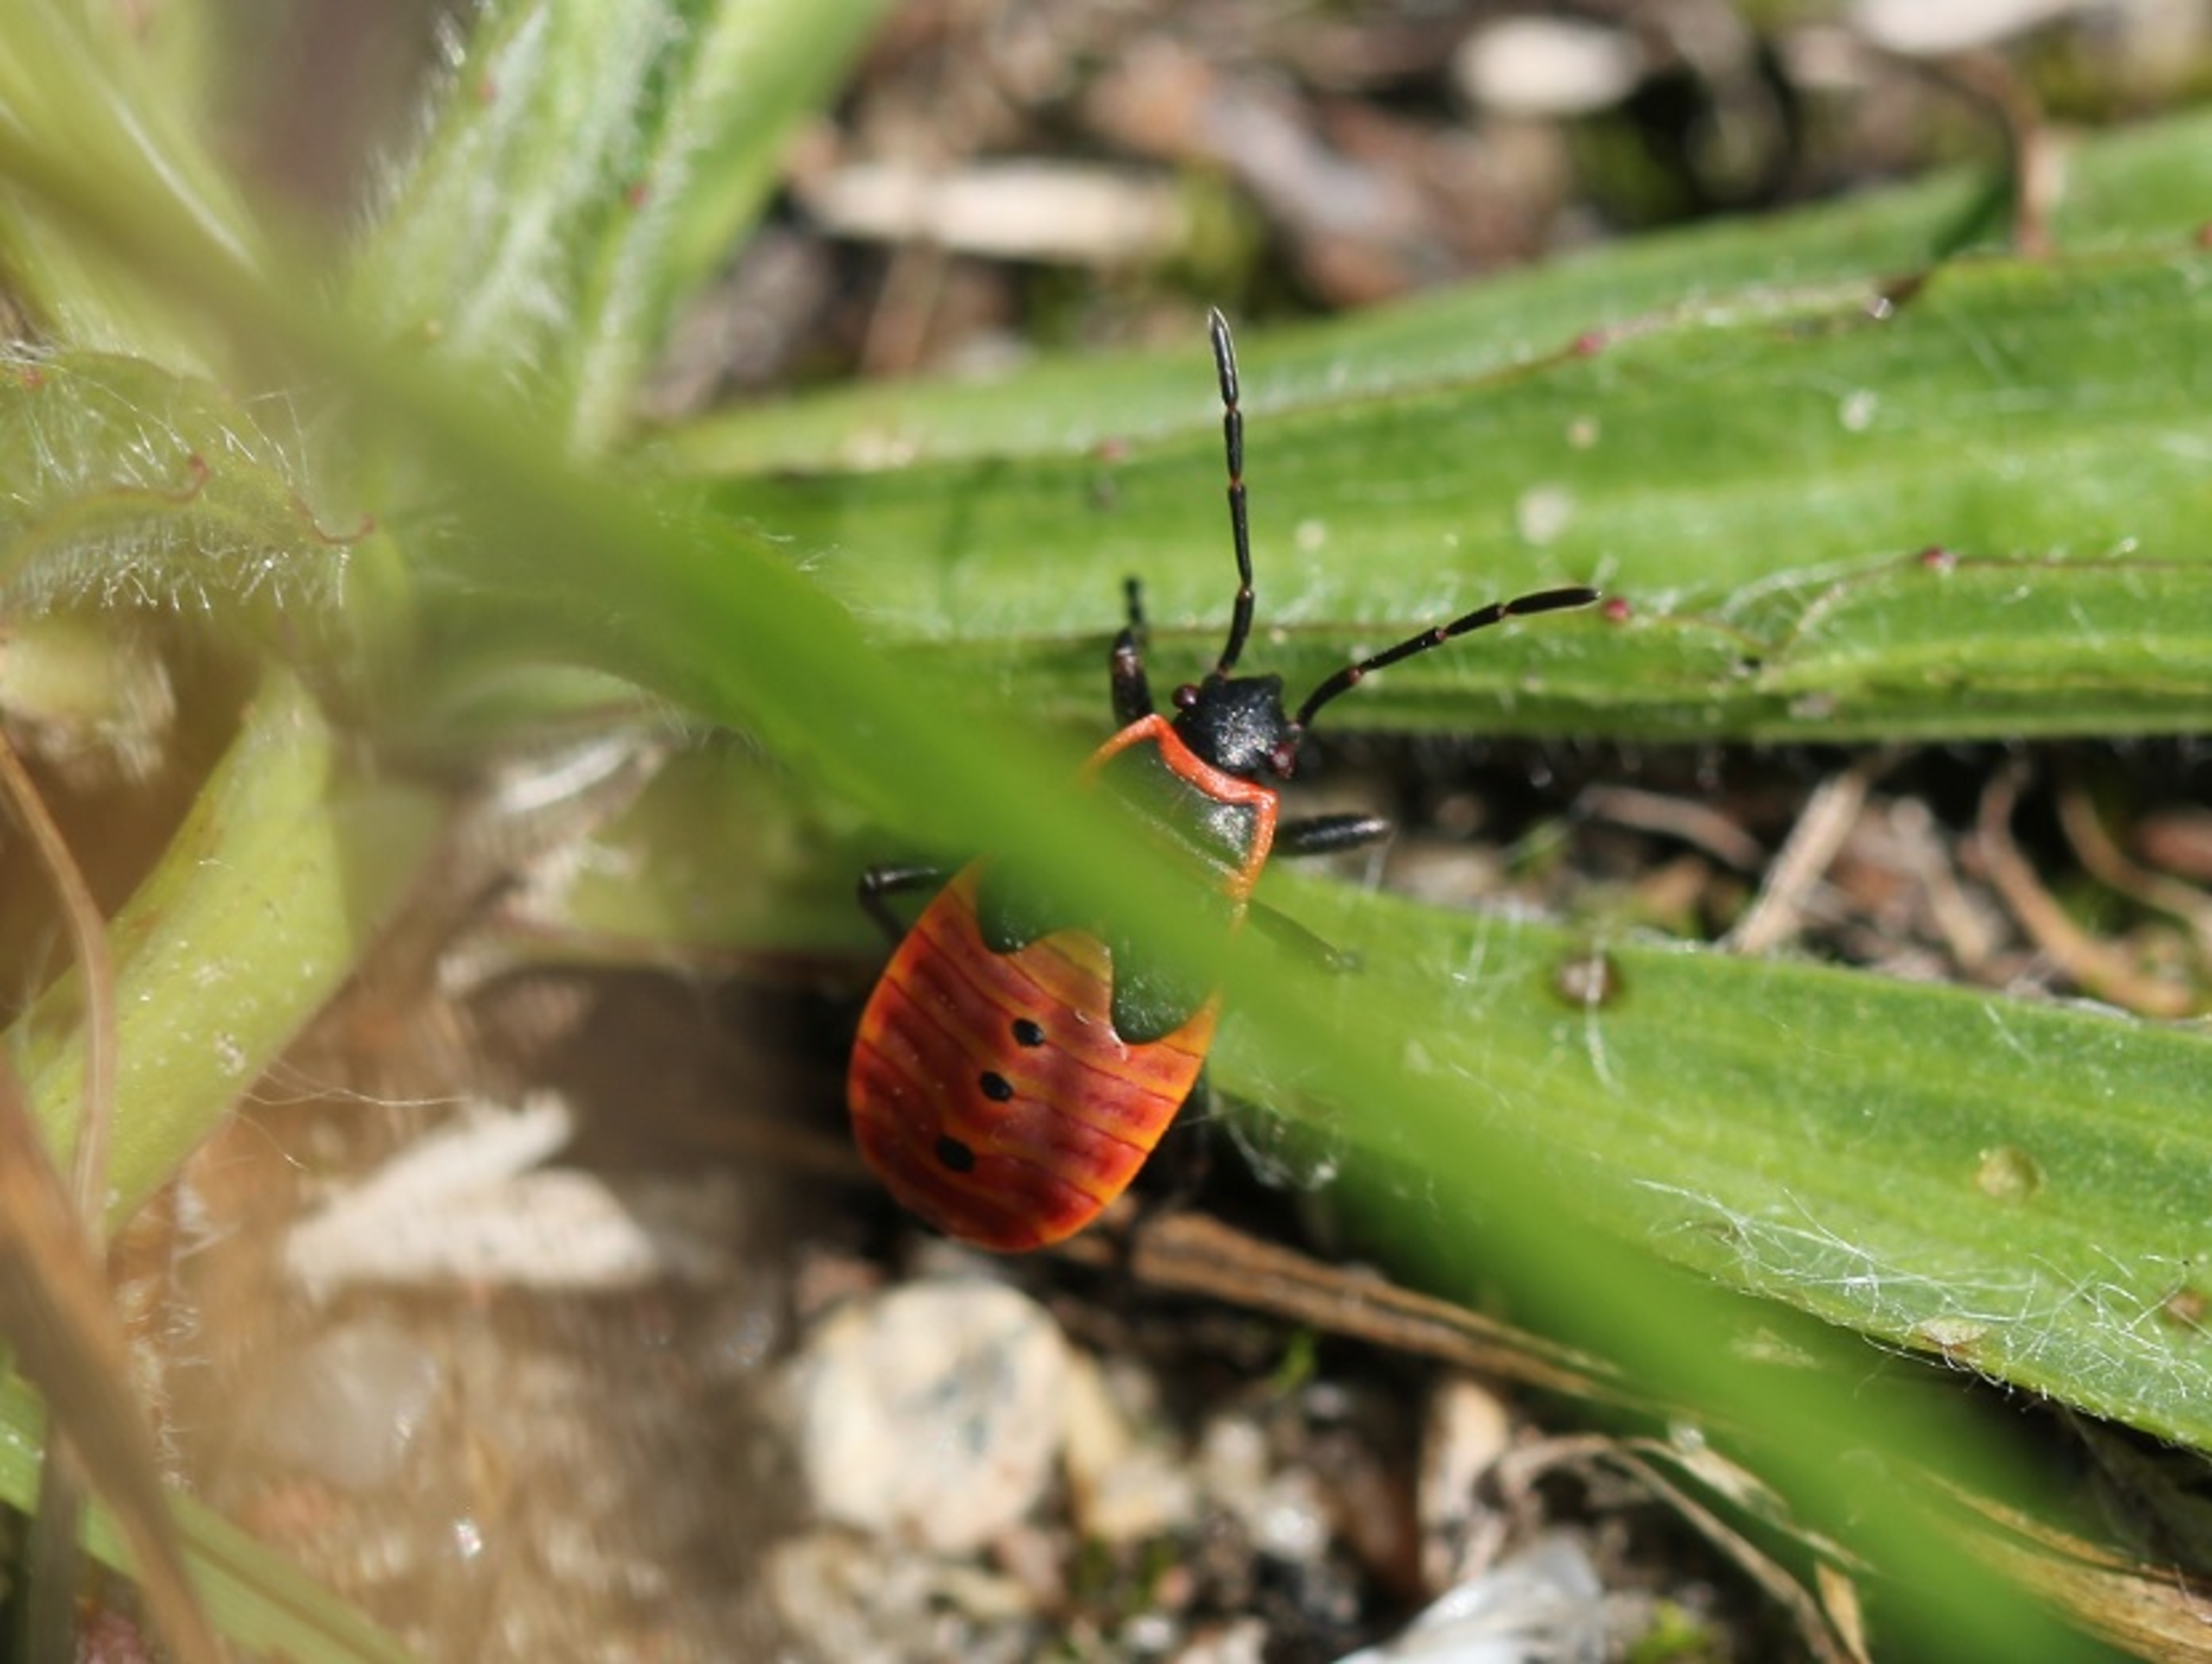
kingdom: Animalia
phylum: Arthropoda
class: Insecta
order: Hemiptera
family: Pyrrhocoridae
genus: Pyrrhocoris
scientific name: Pyrrhocoris apterus
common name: Ildtæge
